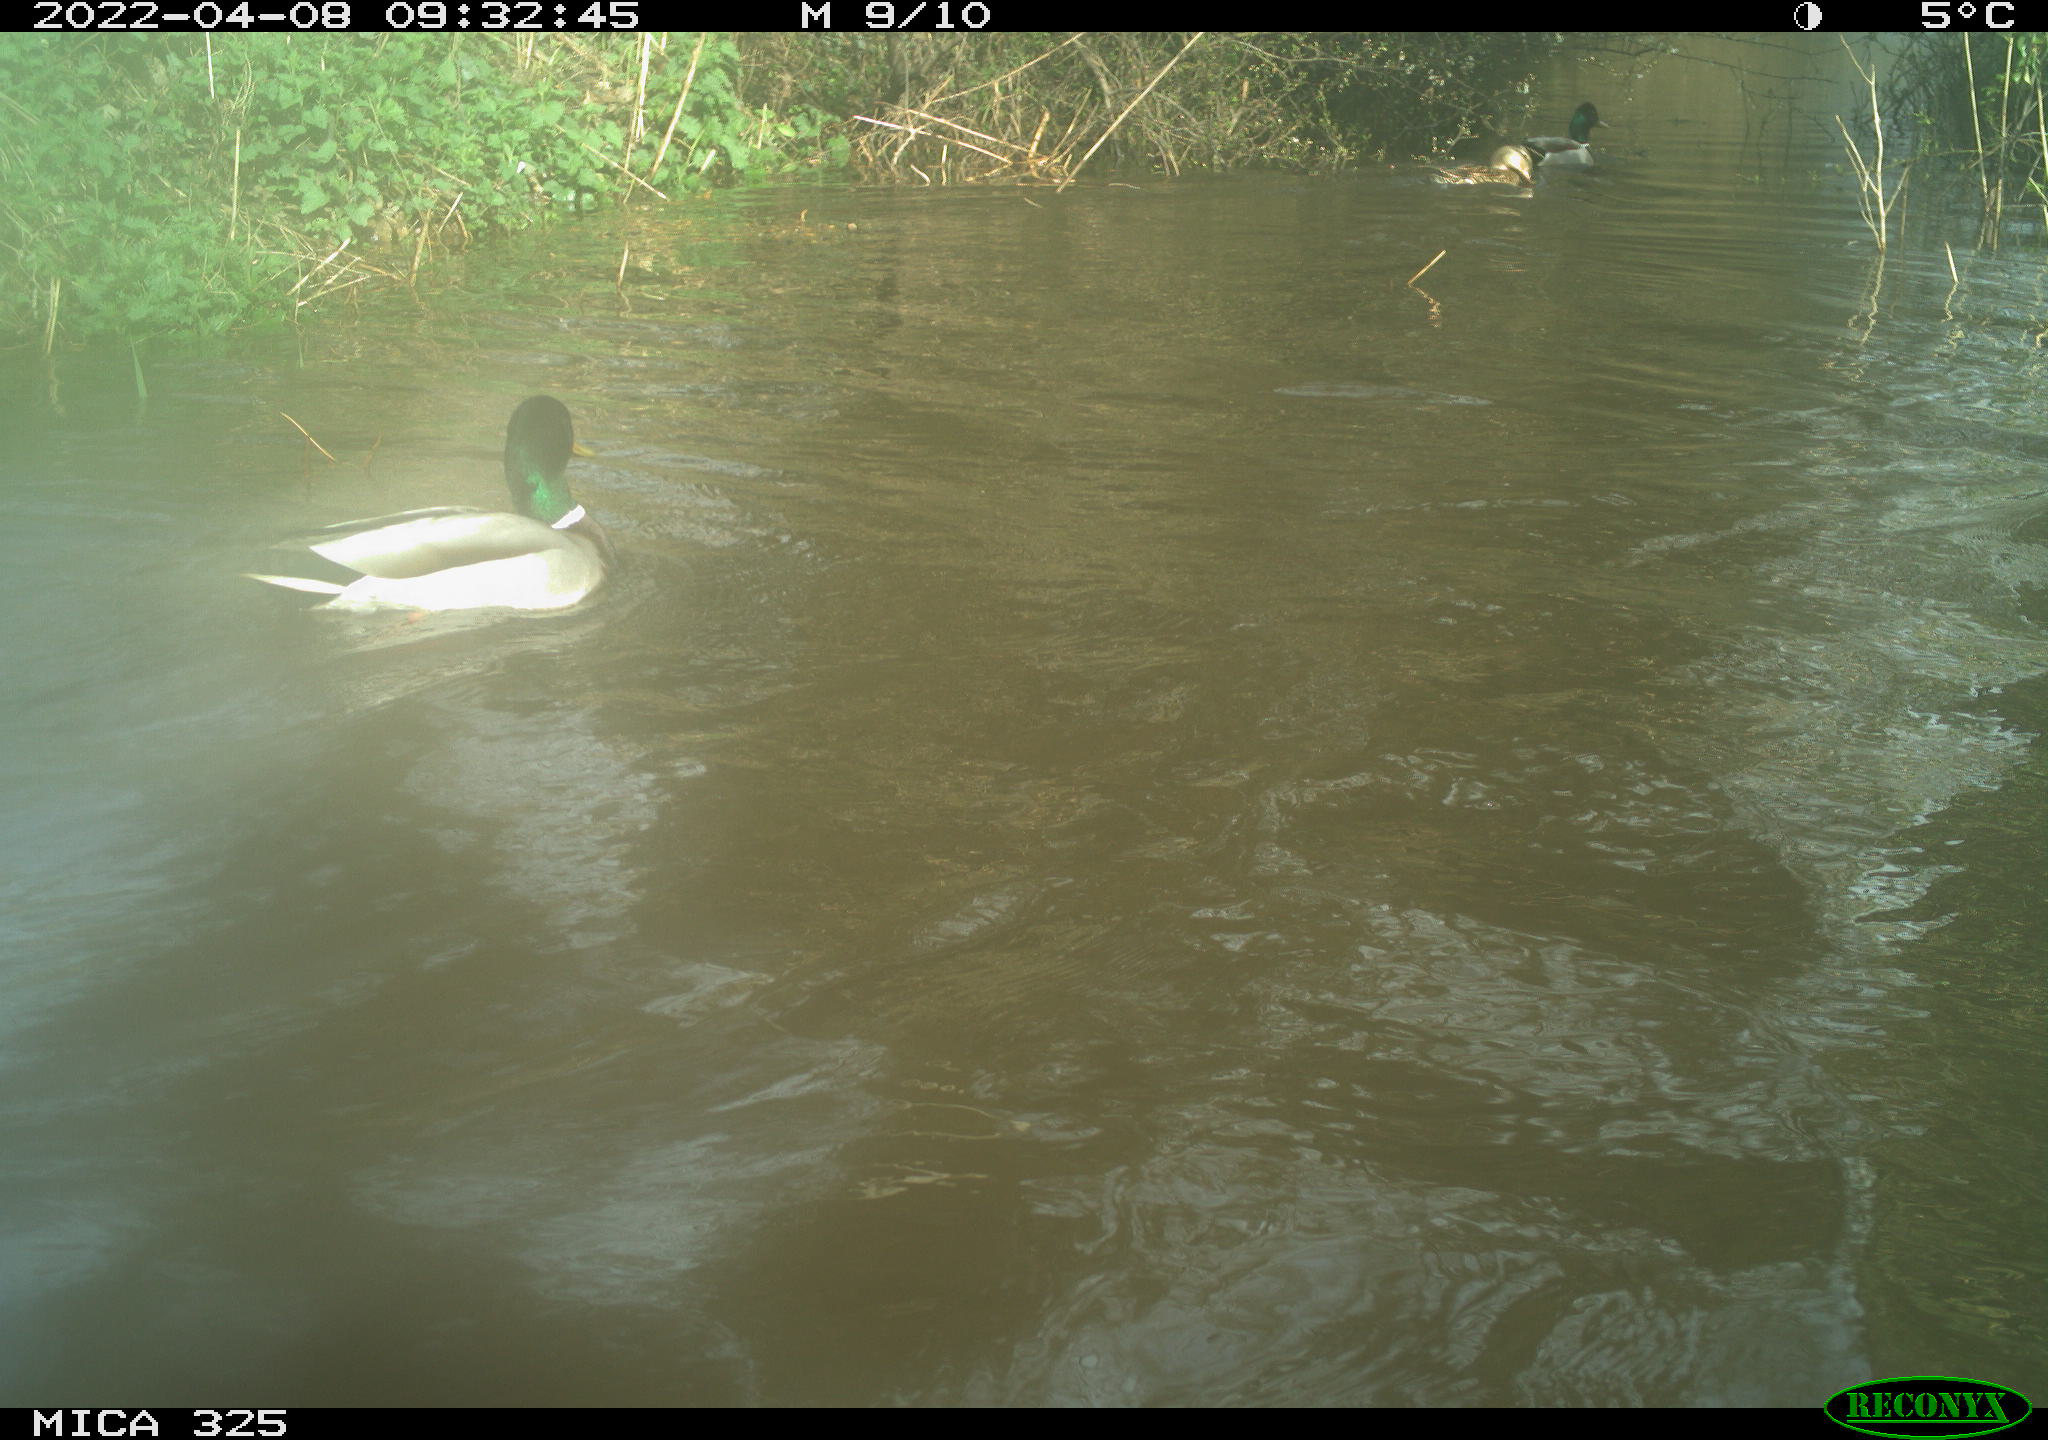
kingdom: Animalia
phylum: Chordata
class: Aves
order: Anseriformes
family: Anatidae
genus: Anas
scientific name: Anas platyrhynchos
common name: Mallard
